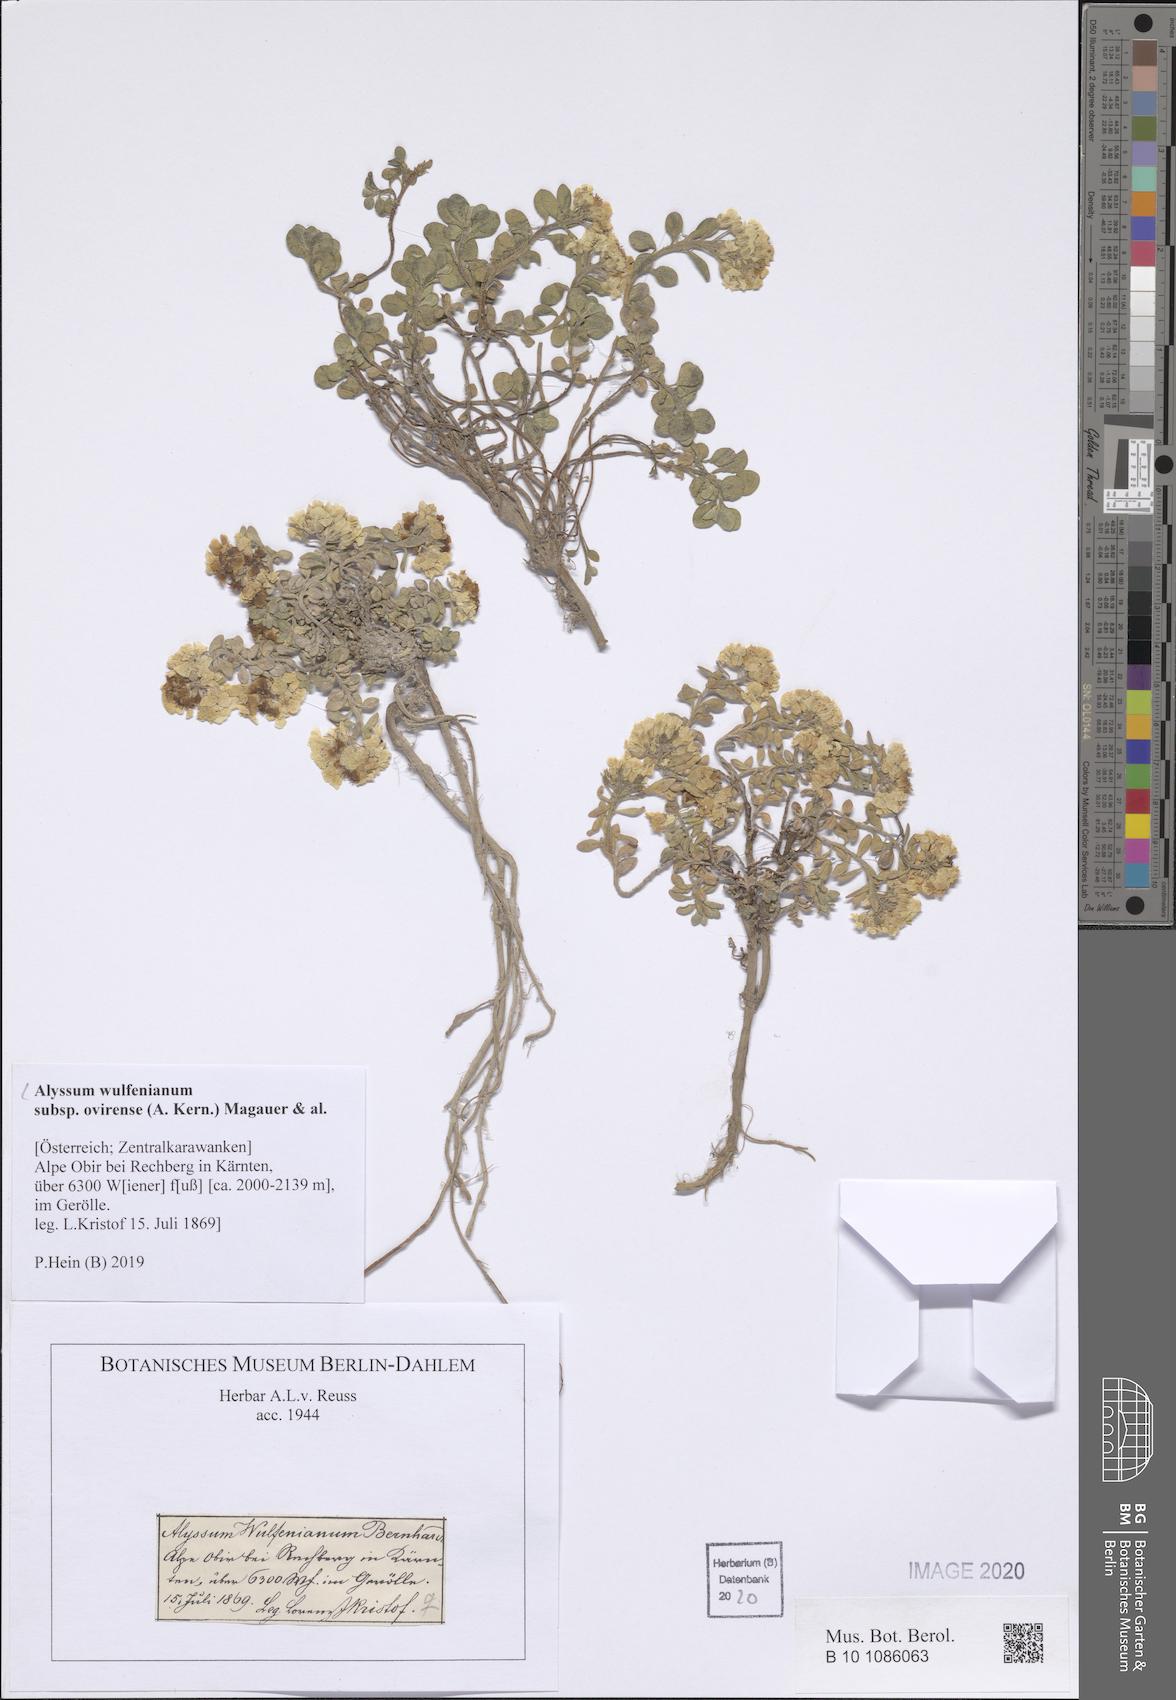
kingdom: Plantae
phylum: Tracheophyta
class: Magnoliopsida
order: Brassicales
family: Brassicaceae
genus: Alyssum
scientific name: Alyssum wulfenianum
